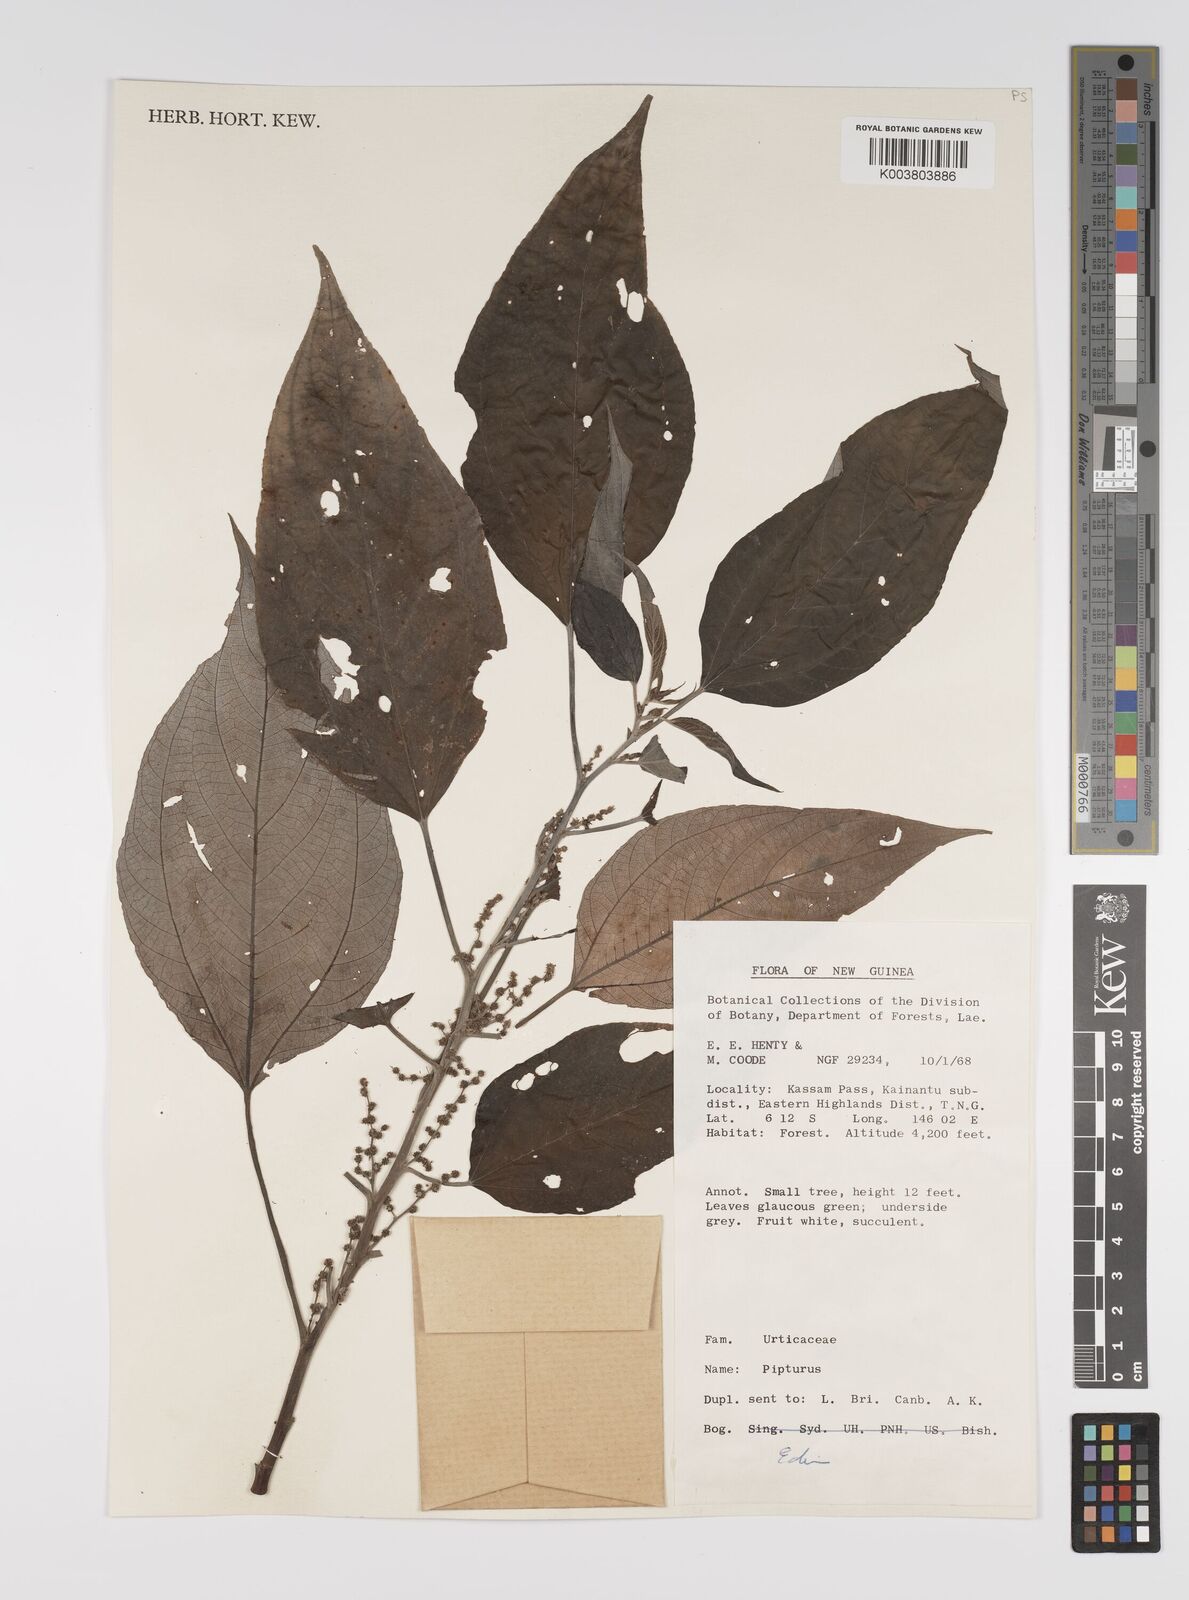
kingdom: Plantae
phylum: Tracheophyta
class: Magnoliopsida
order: Rosales
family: Urticaceae
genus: Pipturus
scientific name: Pipturus argenteus
